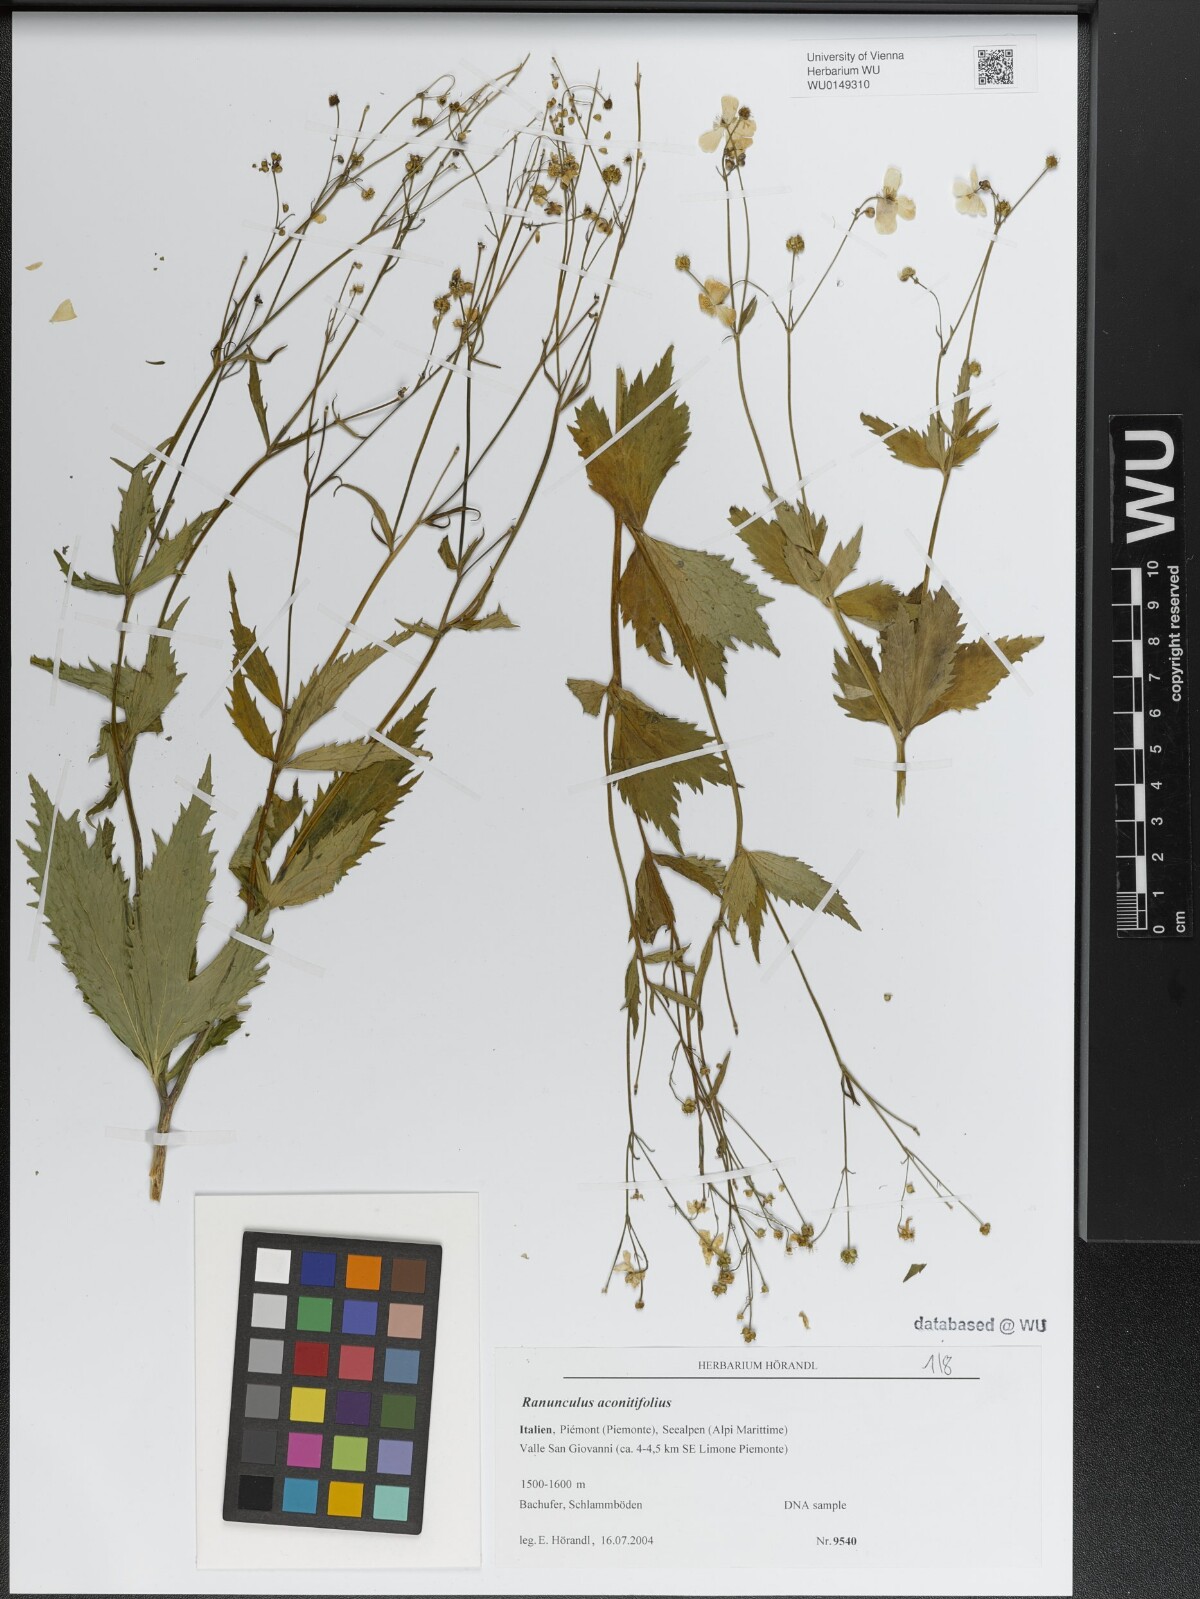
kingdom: Plantae
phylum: Tracheophyta
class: Magnoliopsida
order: Ranunculales
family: Ranunculaceae
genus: Ranunculus
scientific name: Ranunculus aconitifolius
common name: Aconite-leaved buttercup
